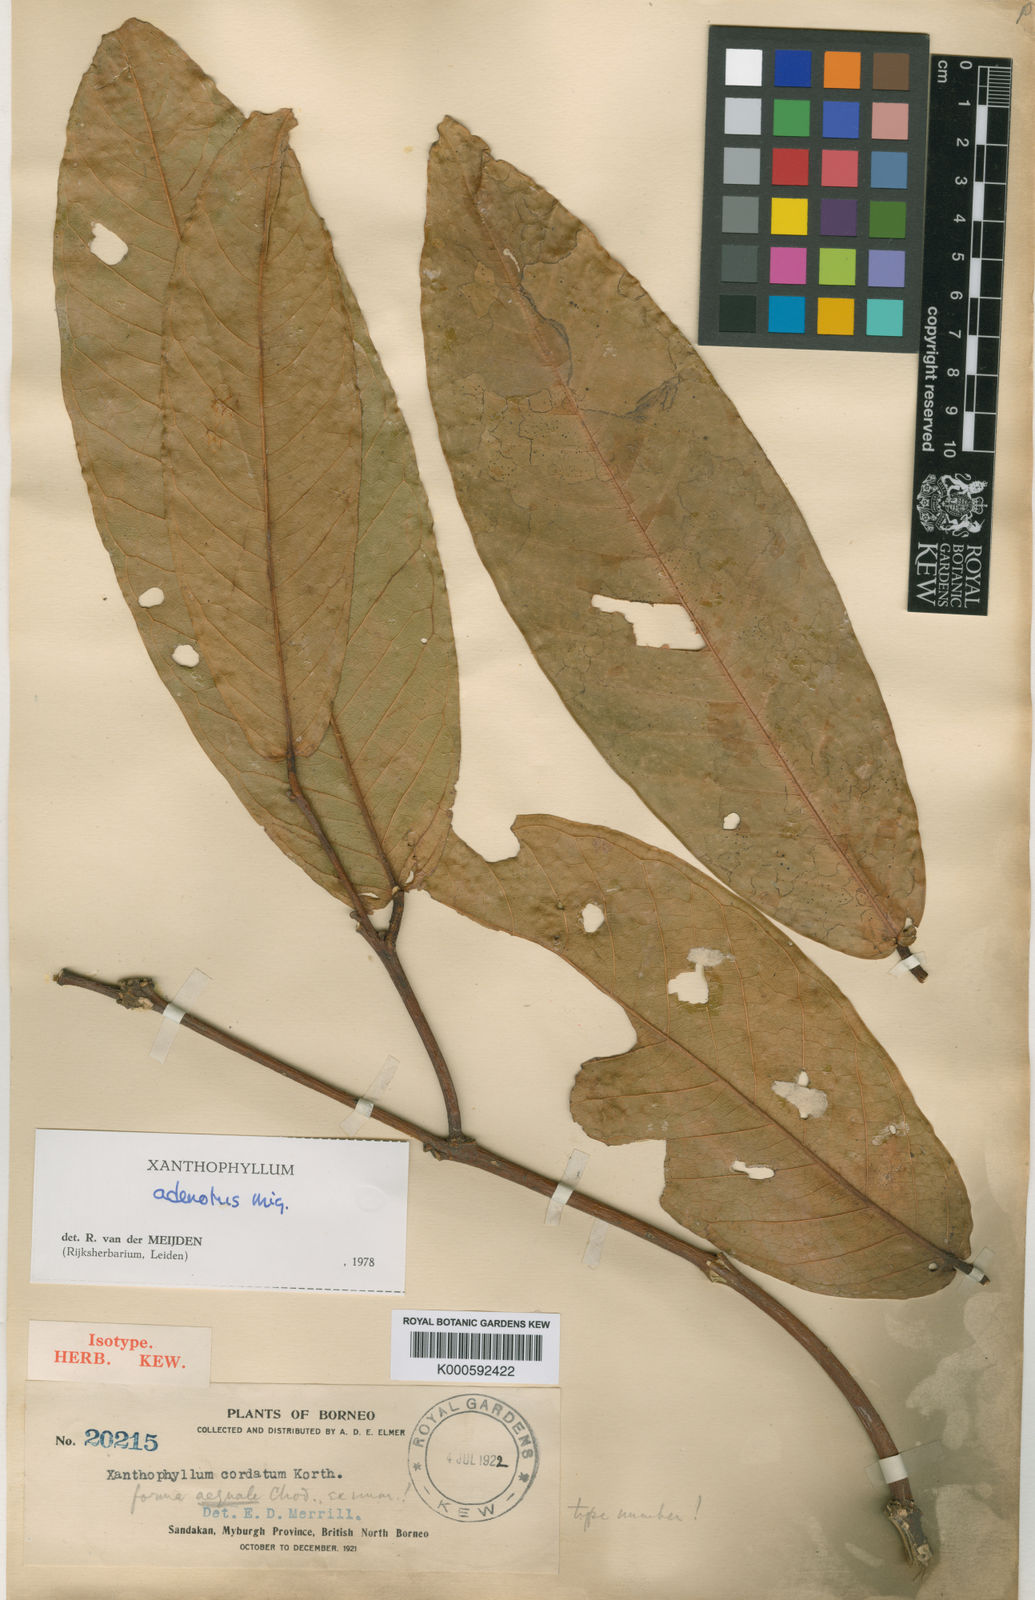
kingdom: Plantae
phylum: Tracheophyta
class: Magnoliopsida
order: Fabales
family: Polygalaceae
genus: Xanthophyllum
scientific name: Xanthophyllum adenotus
